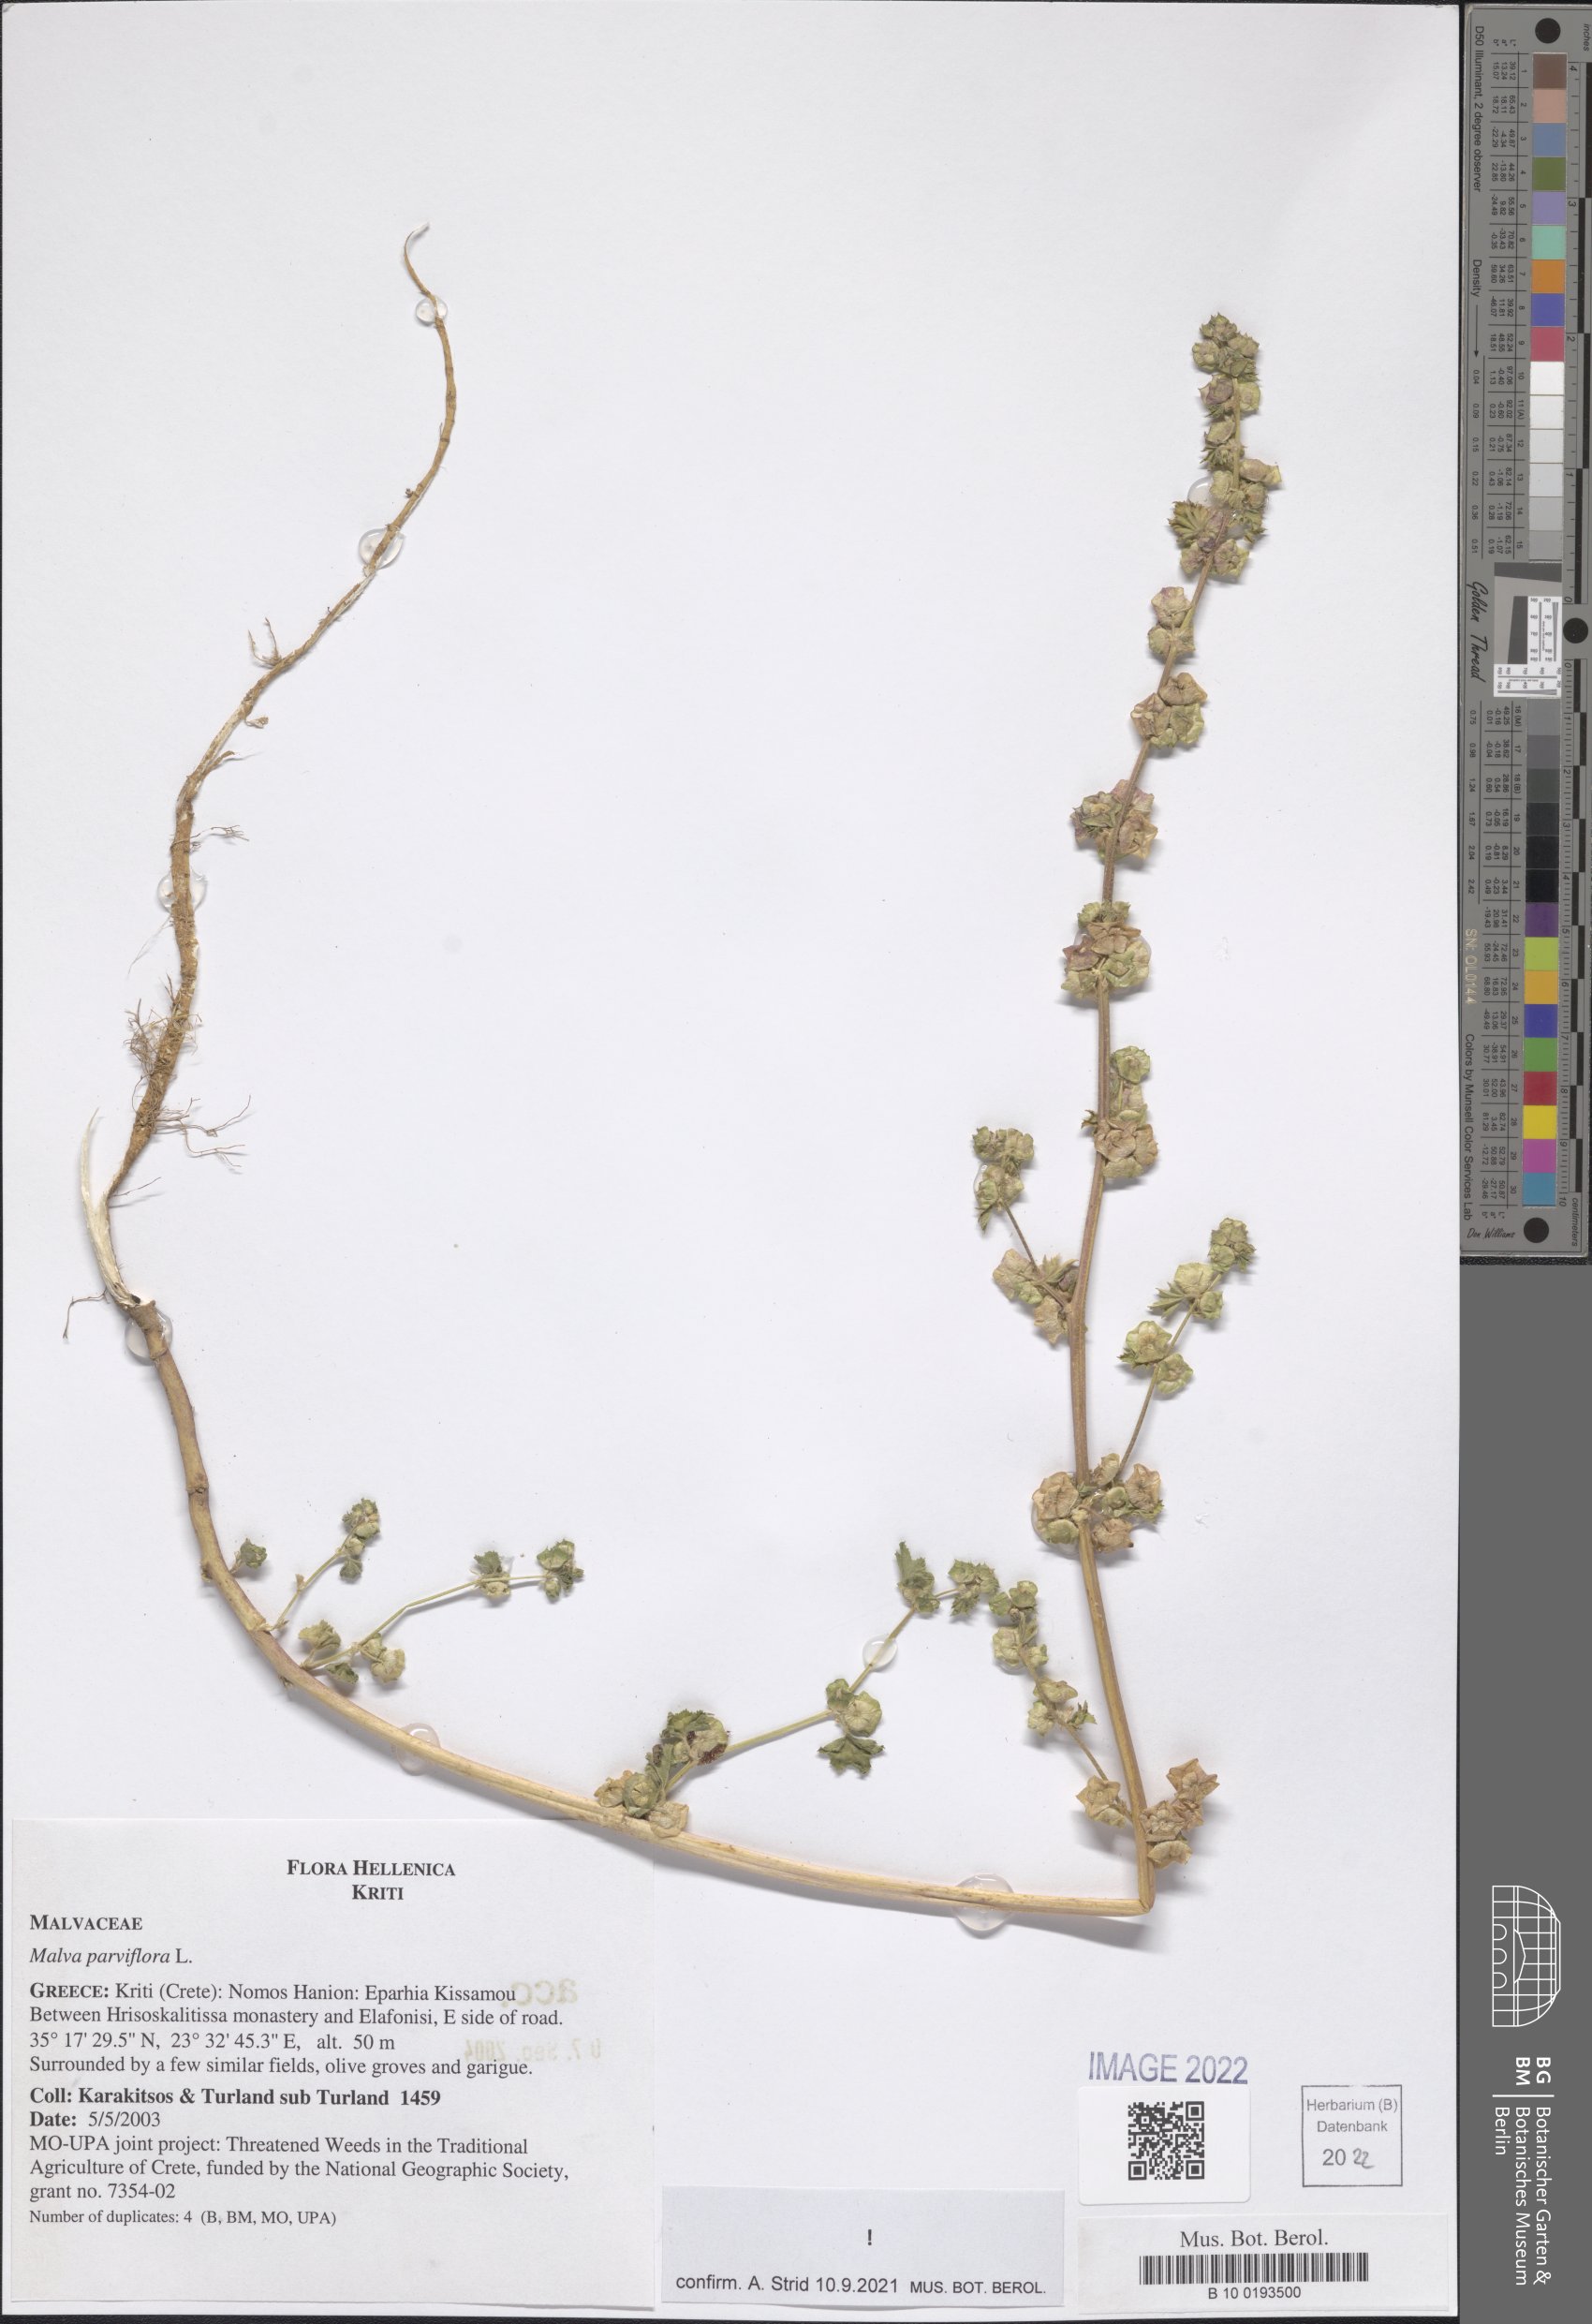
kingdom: Plantae
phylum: Tracheophyta
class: Magnoliopsida
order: Malvales
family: Malvaceae
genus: Malva
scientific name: Malva parviflora
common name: Least mallow
